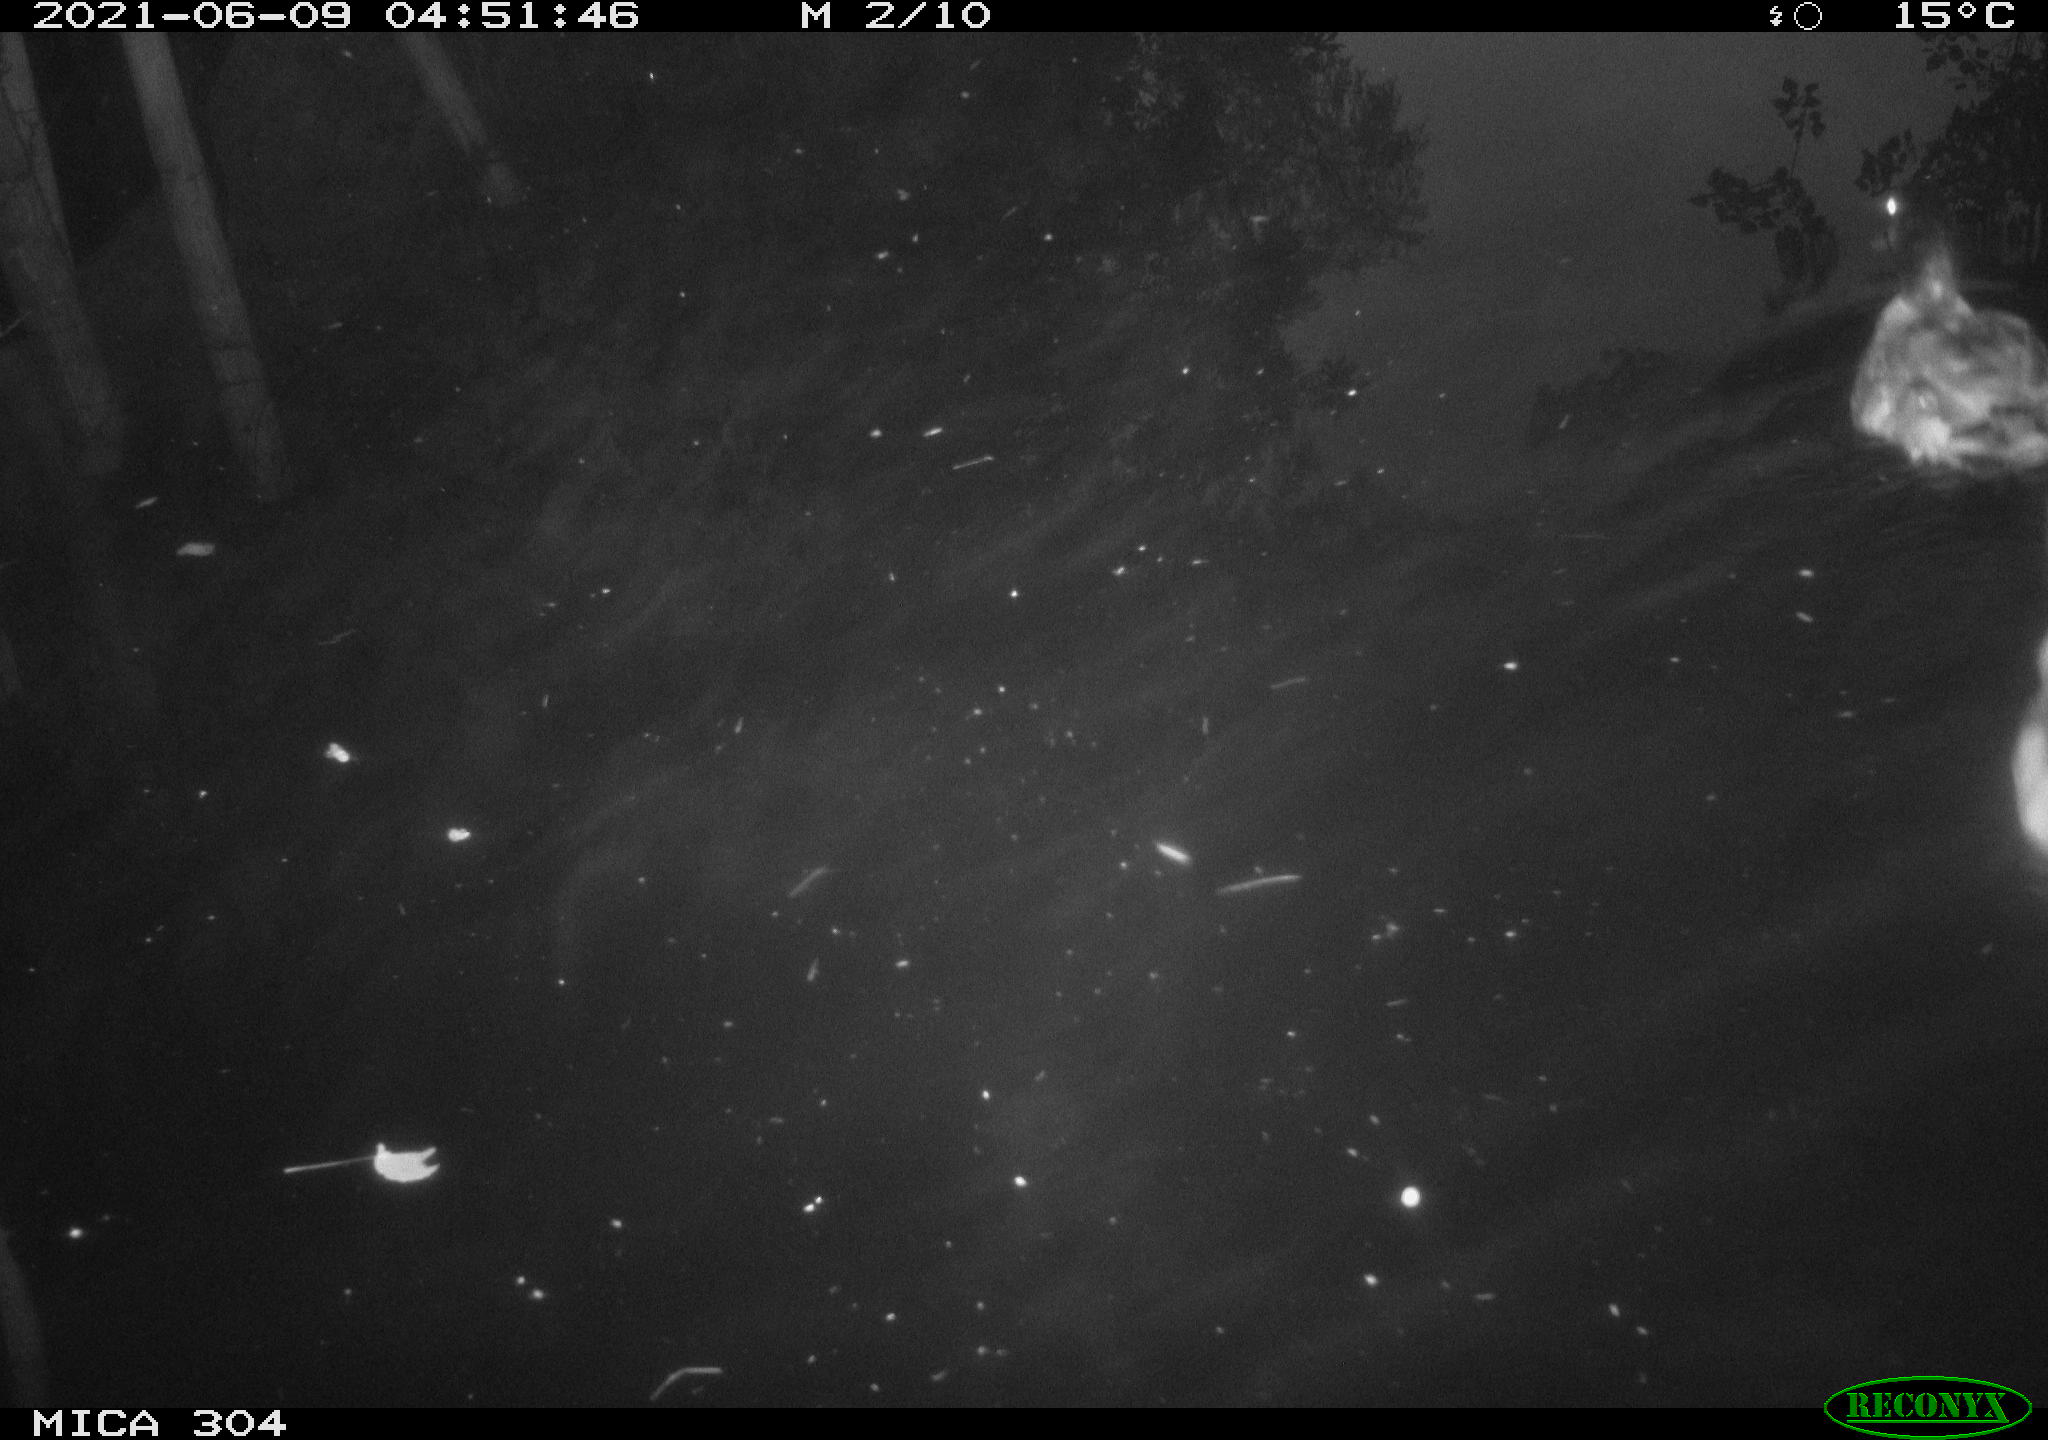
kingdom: Animalia
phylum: Chordata
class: Aves
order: Anseriformes
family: Anatidae
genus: Anas
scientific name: Anas platyrhynchos
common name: Mallard
